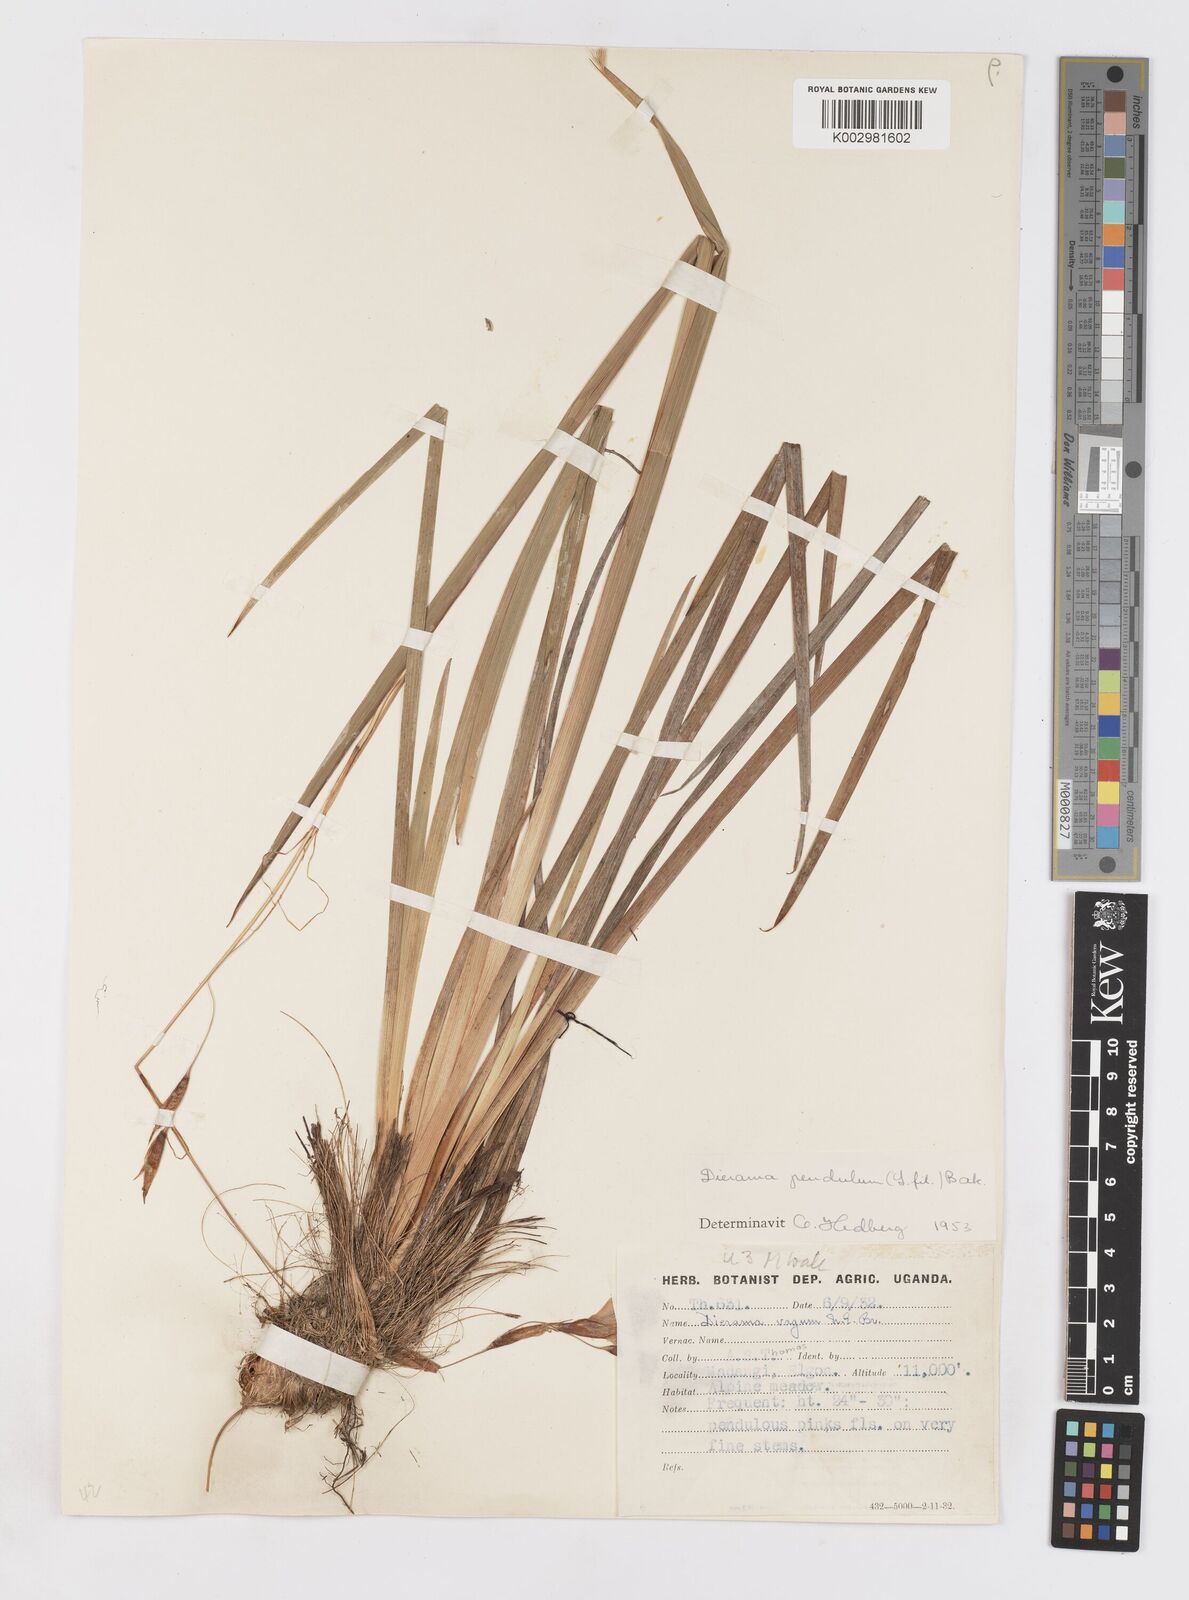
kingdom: Plantae
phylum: Tracheophyta
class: Liliopsida
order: Asparagales
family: Iridaceae
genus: Dierama
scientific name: Dierama cupuliflorum
